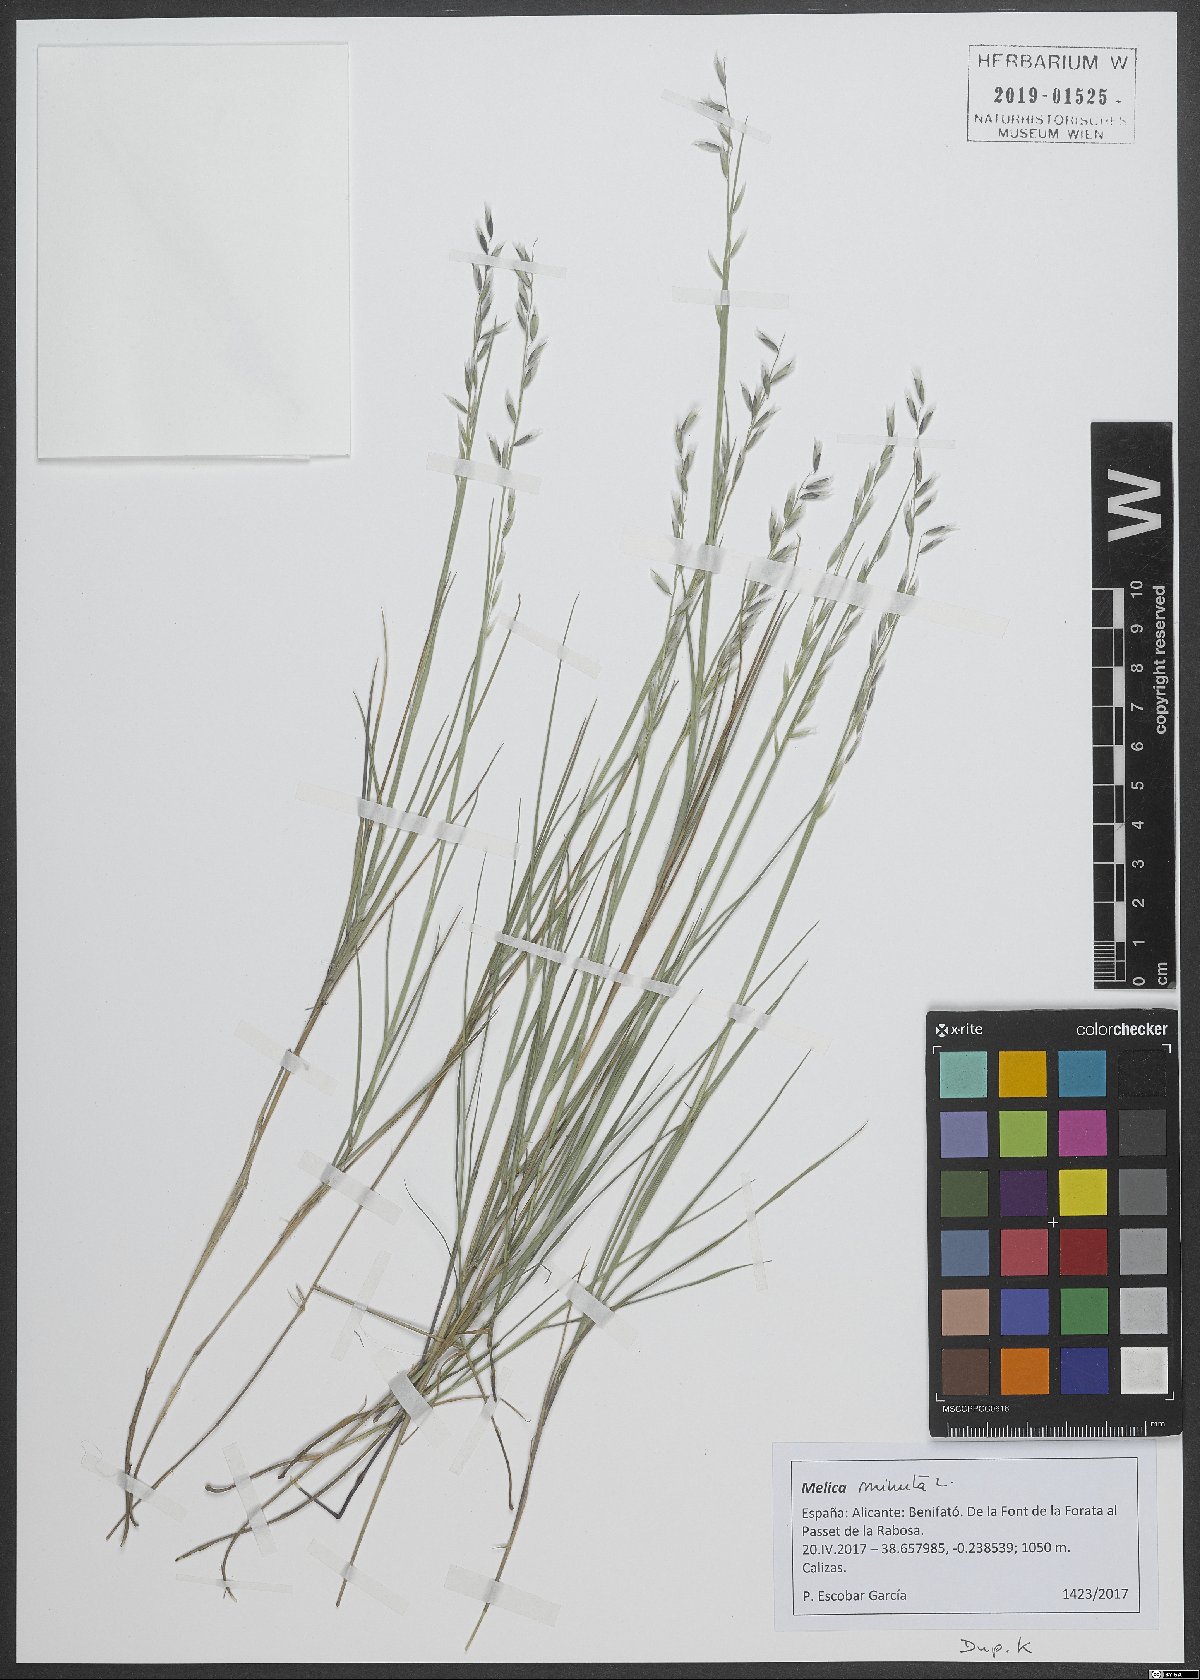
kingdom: Plantae
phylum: Tracheophyta
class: Liliopsida
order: Poales
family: Poaceae
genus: Melica
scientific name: Melica minuta
